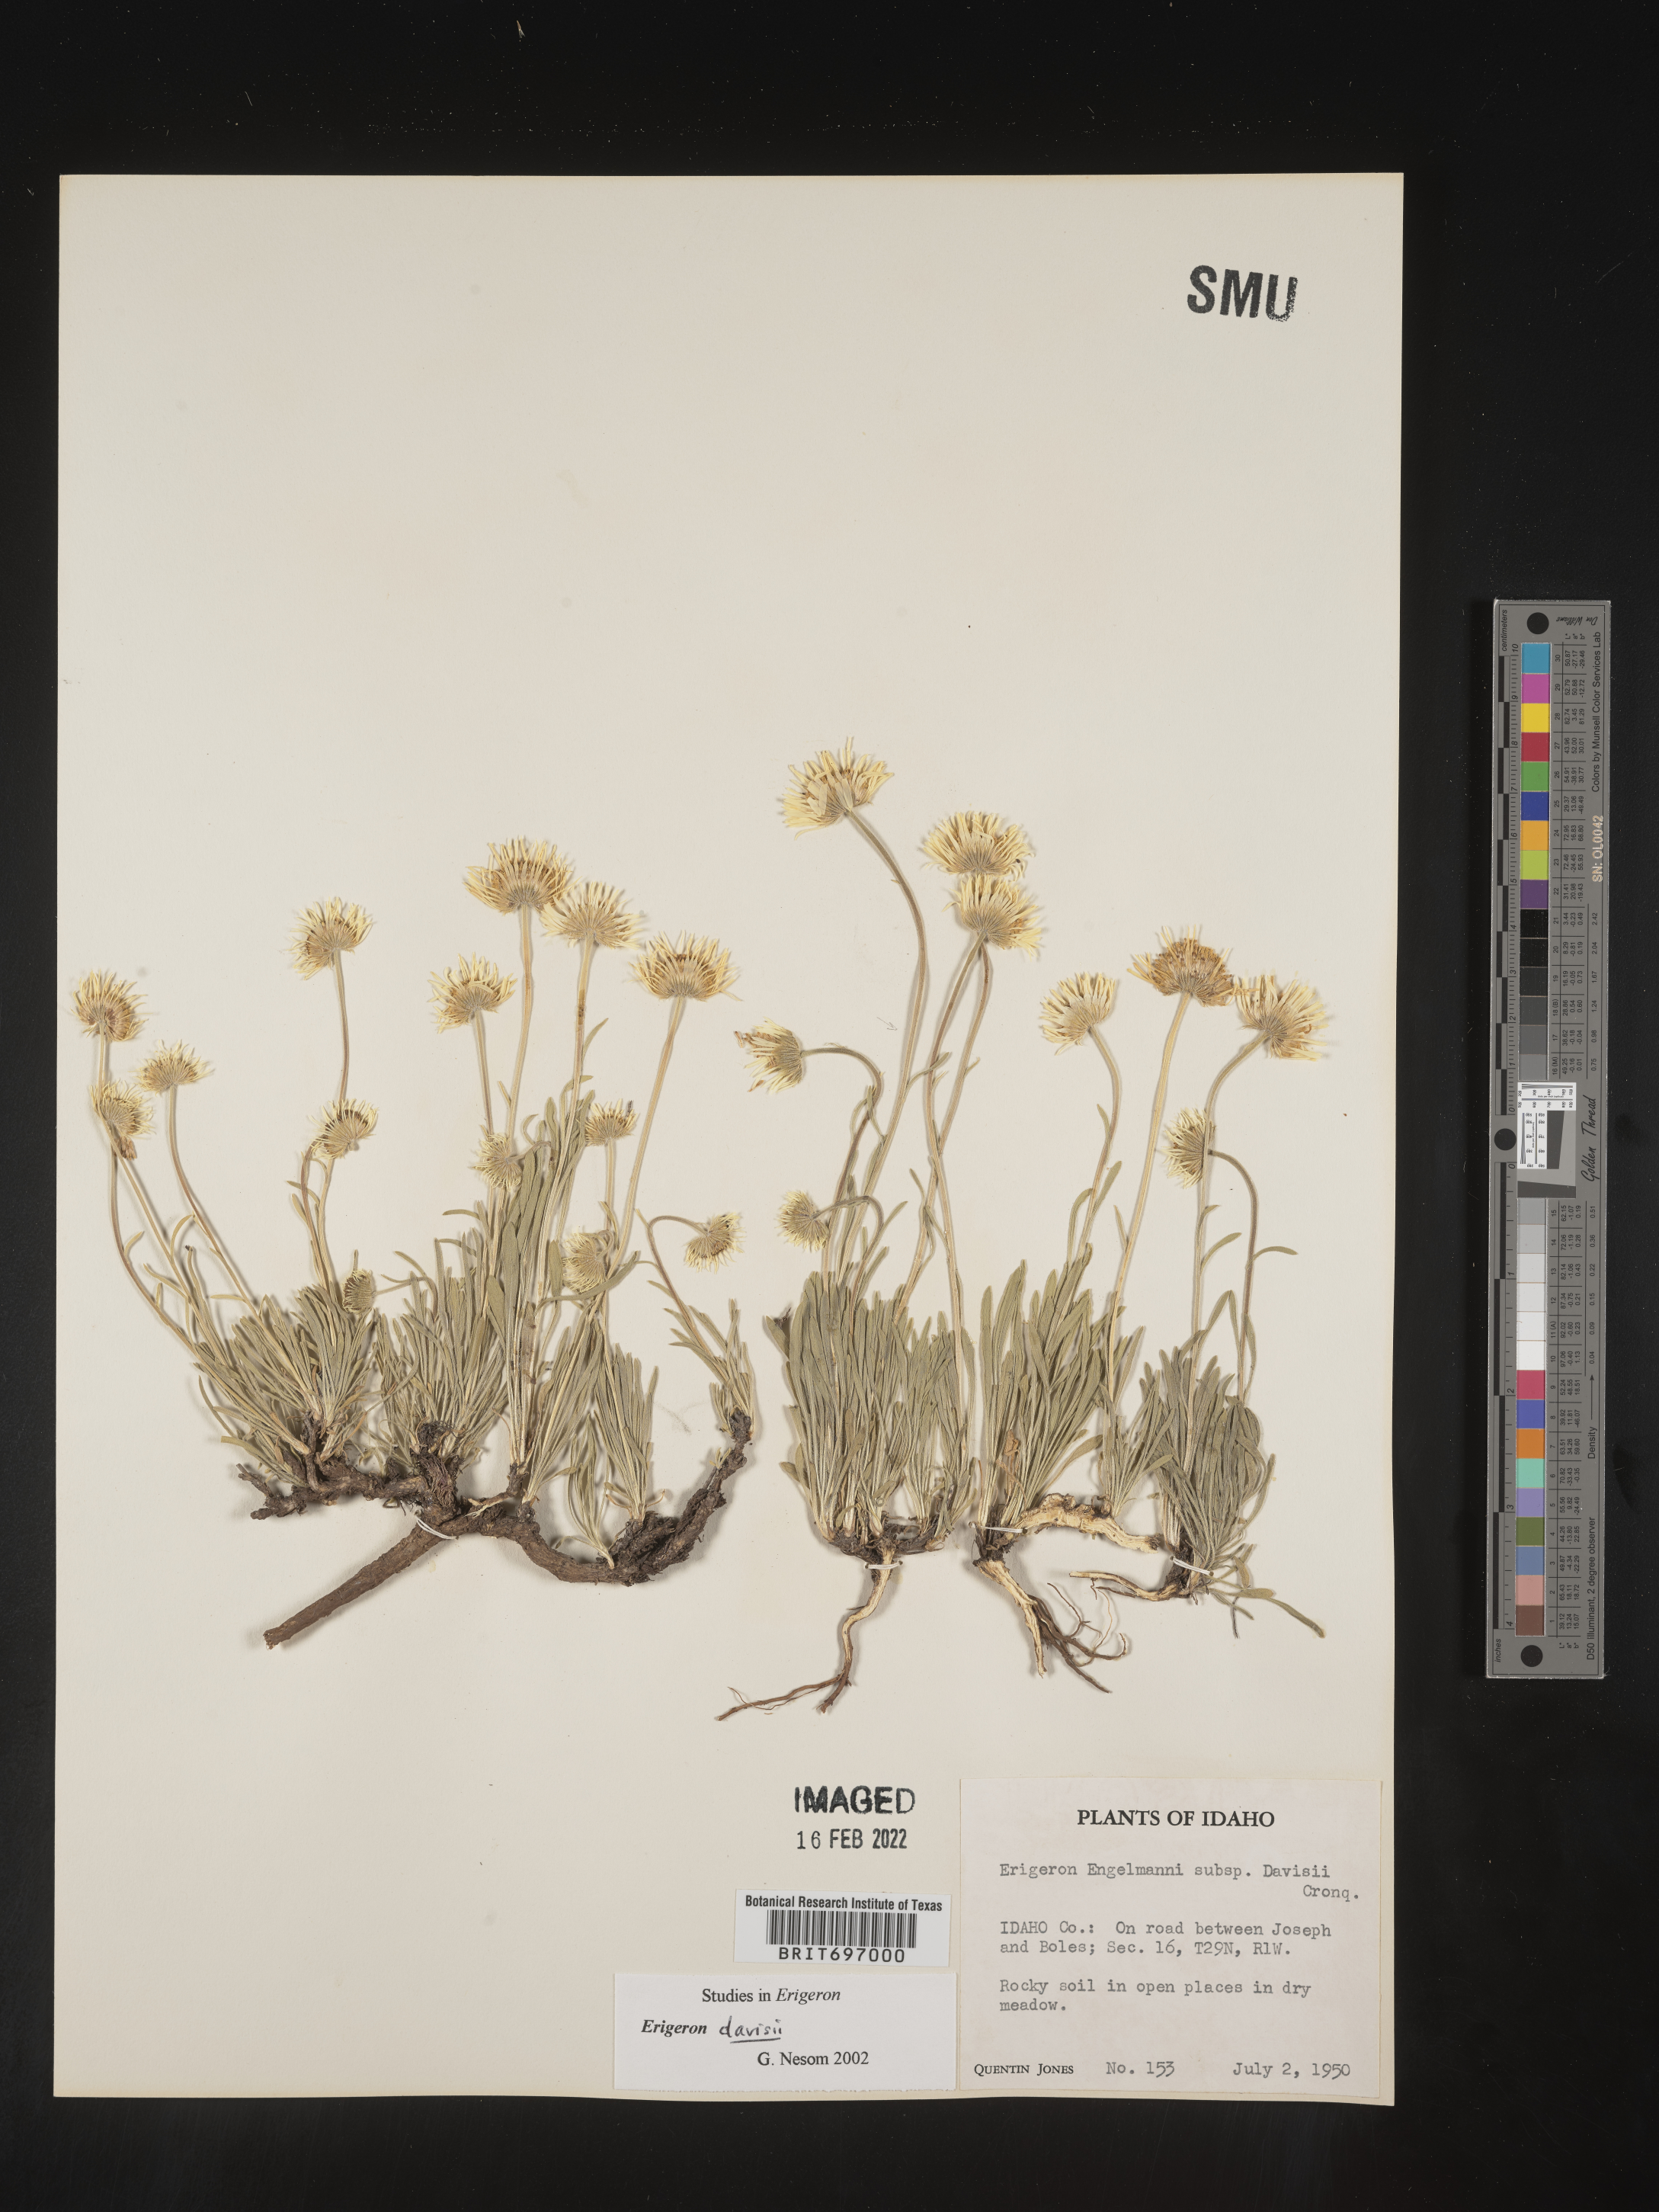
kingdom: Plantae
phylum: Tracheophyta
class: Magnoliopsida
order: Asterales
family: Asteraceae
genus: Erigeron
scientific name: Erigeron davisii
